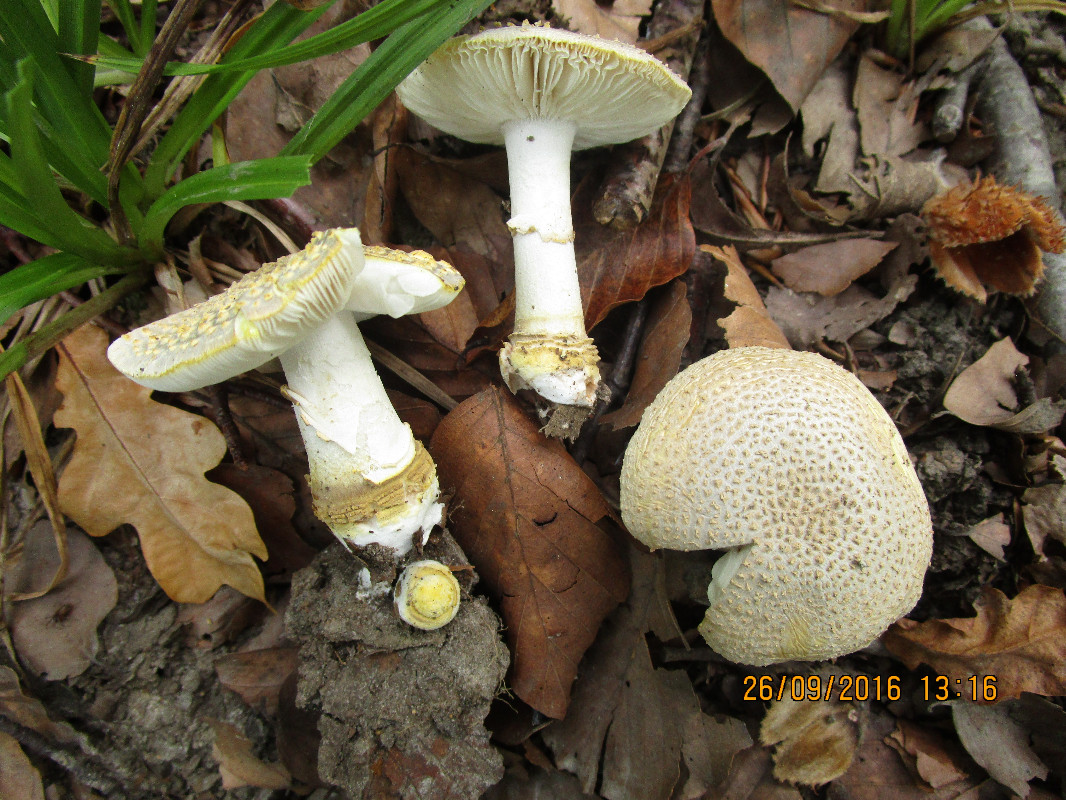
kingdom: Fungi
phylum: Basidiomycota
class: Agaricomycetes
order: Agaricales
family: Amanitaceae
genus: Amanita
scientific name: Amanita franchetii
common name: gulrandet fluesvamp
